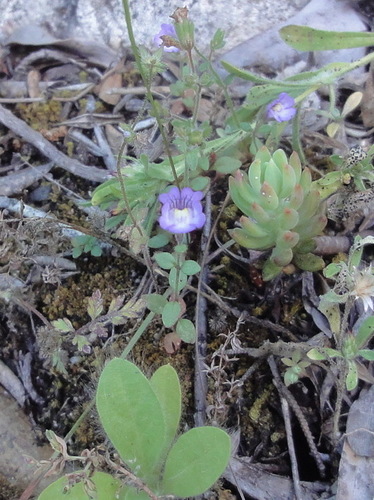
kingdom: Plantae
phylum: Tracheophyta
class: Magnoliopsida
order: Lamiales
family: Plantaginaceae
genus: Chaenorhinum
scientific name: Chaenorhinum serpyllifolium
